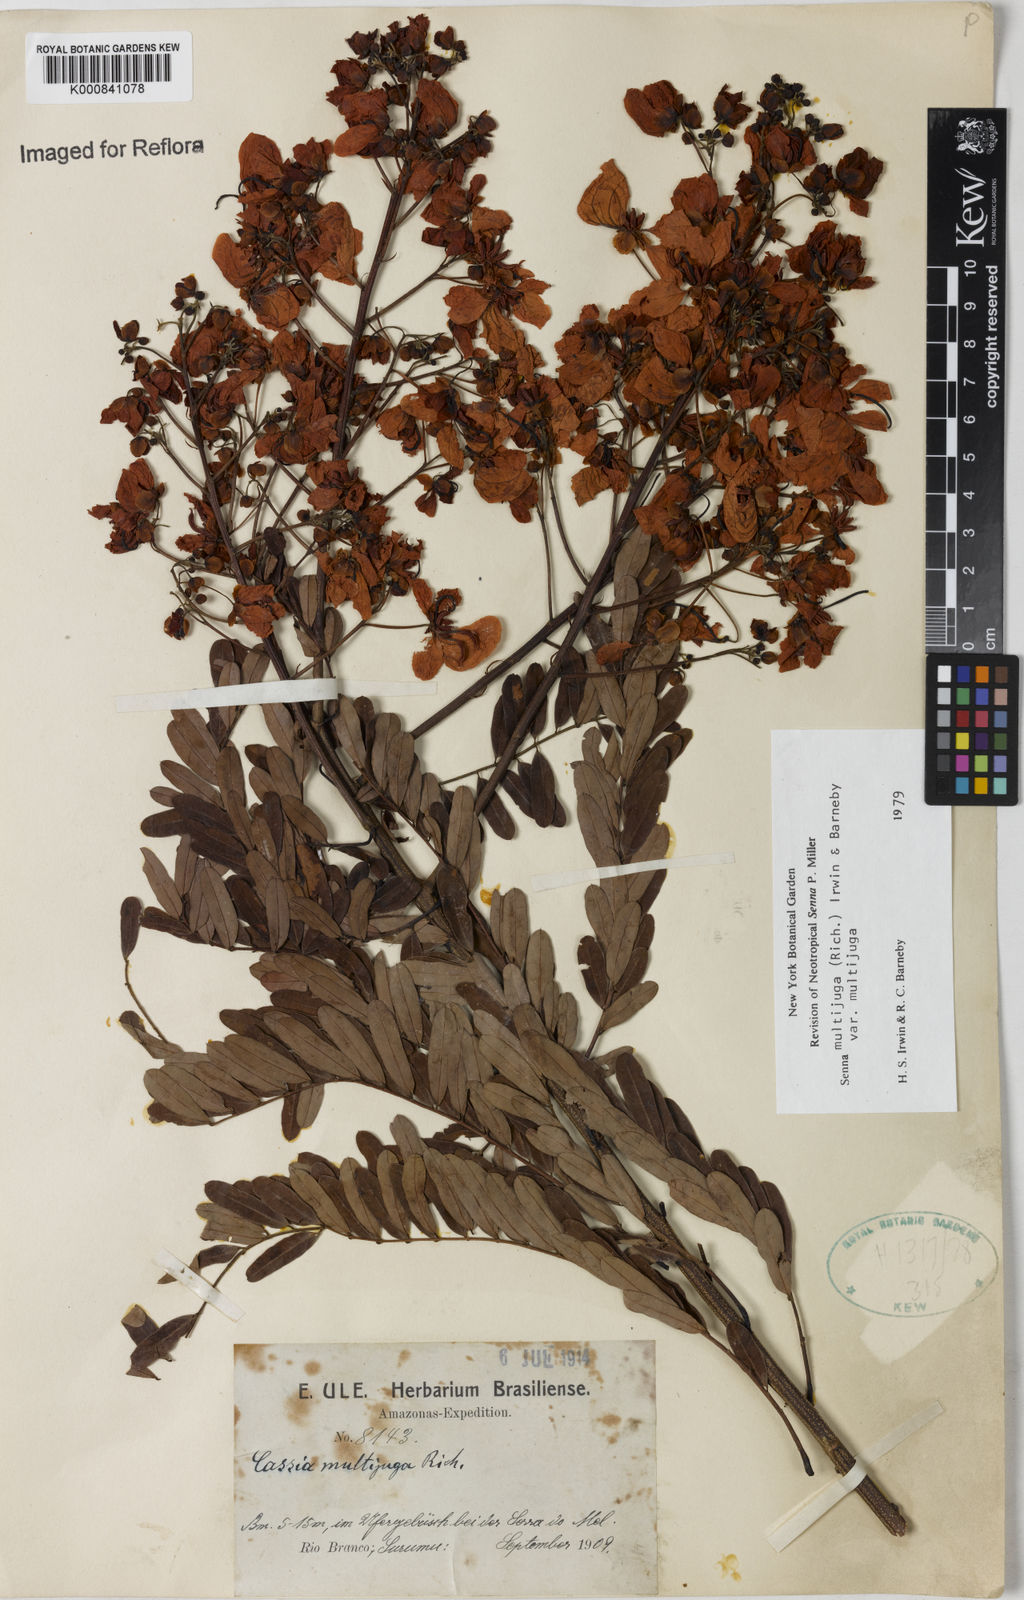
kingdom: Plantae
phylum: Tracheophyta
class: Magnoliopsida
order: Fabales
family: Fabaceae
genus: Senna
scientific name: Senna multijuga
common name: False sicklepod
